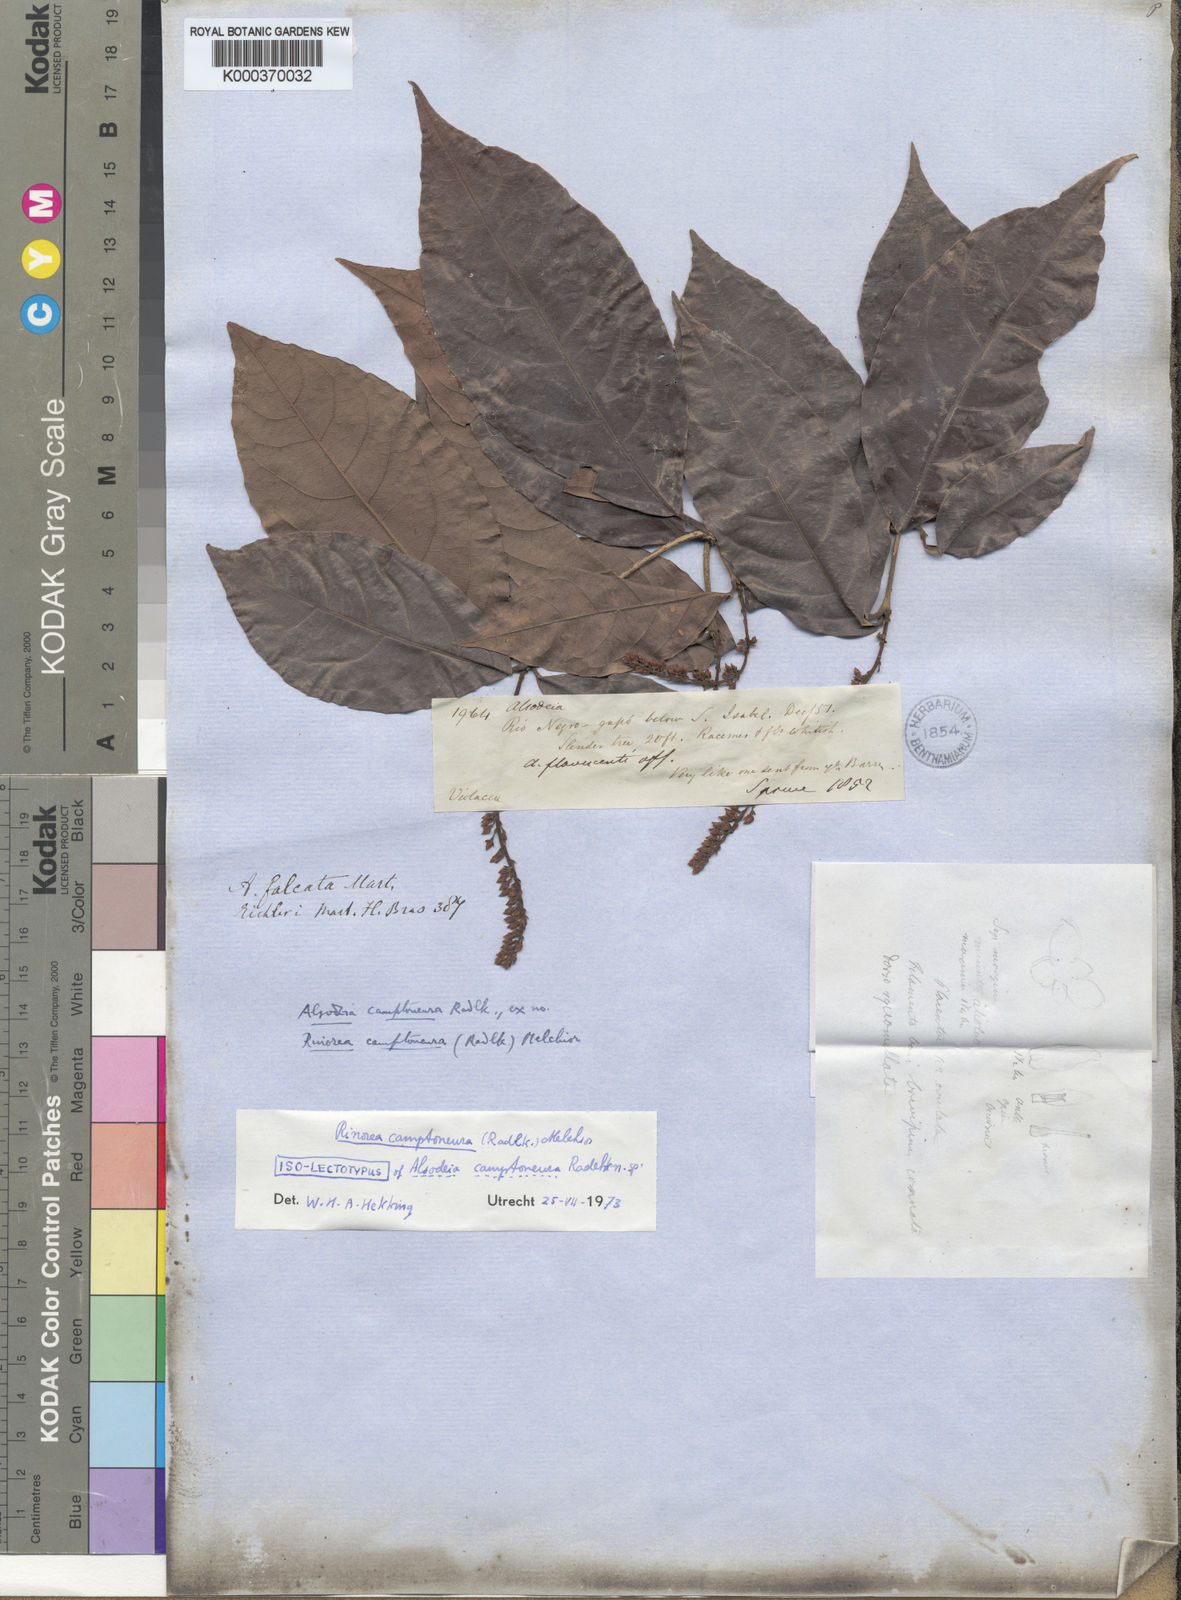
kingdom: Plantae
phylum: Tracheophyta
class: Magnoliopsida
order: Malpighiales
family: Violaceae
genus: Rinorea
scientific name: Rinorea
